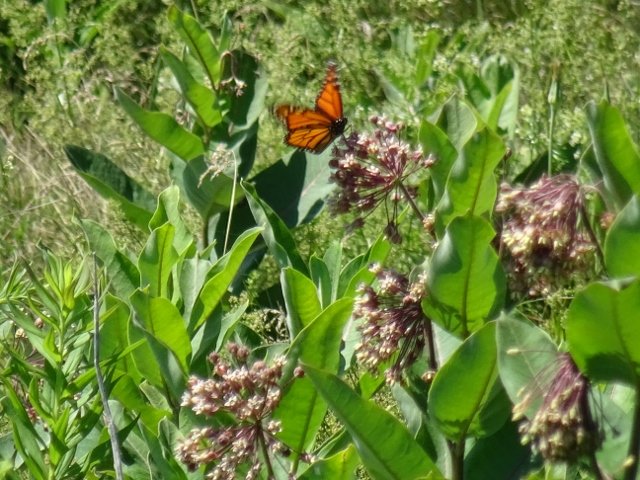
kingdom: Animalia
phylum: Arthropoda
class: Insecta
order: Lepidoptera
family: Nymphalidae
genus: Danaus
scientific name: Danaus plexippus
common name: Monarch
